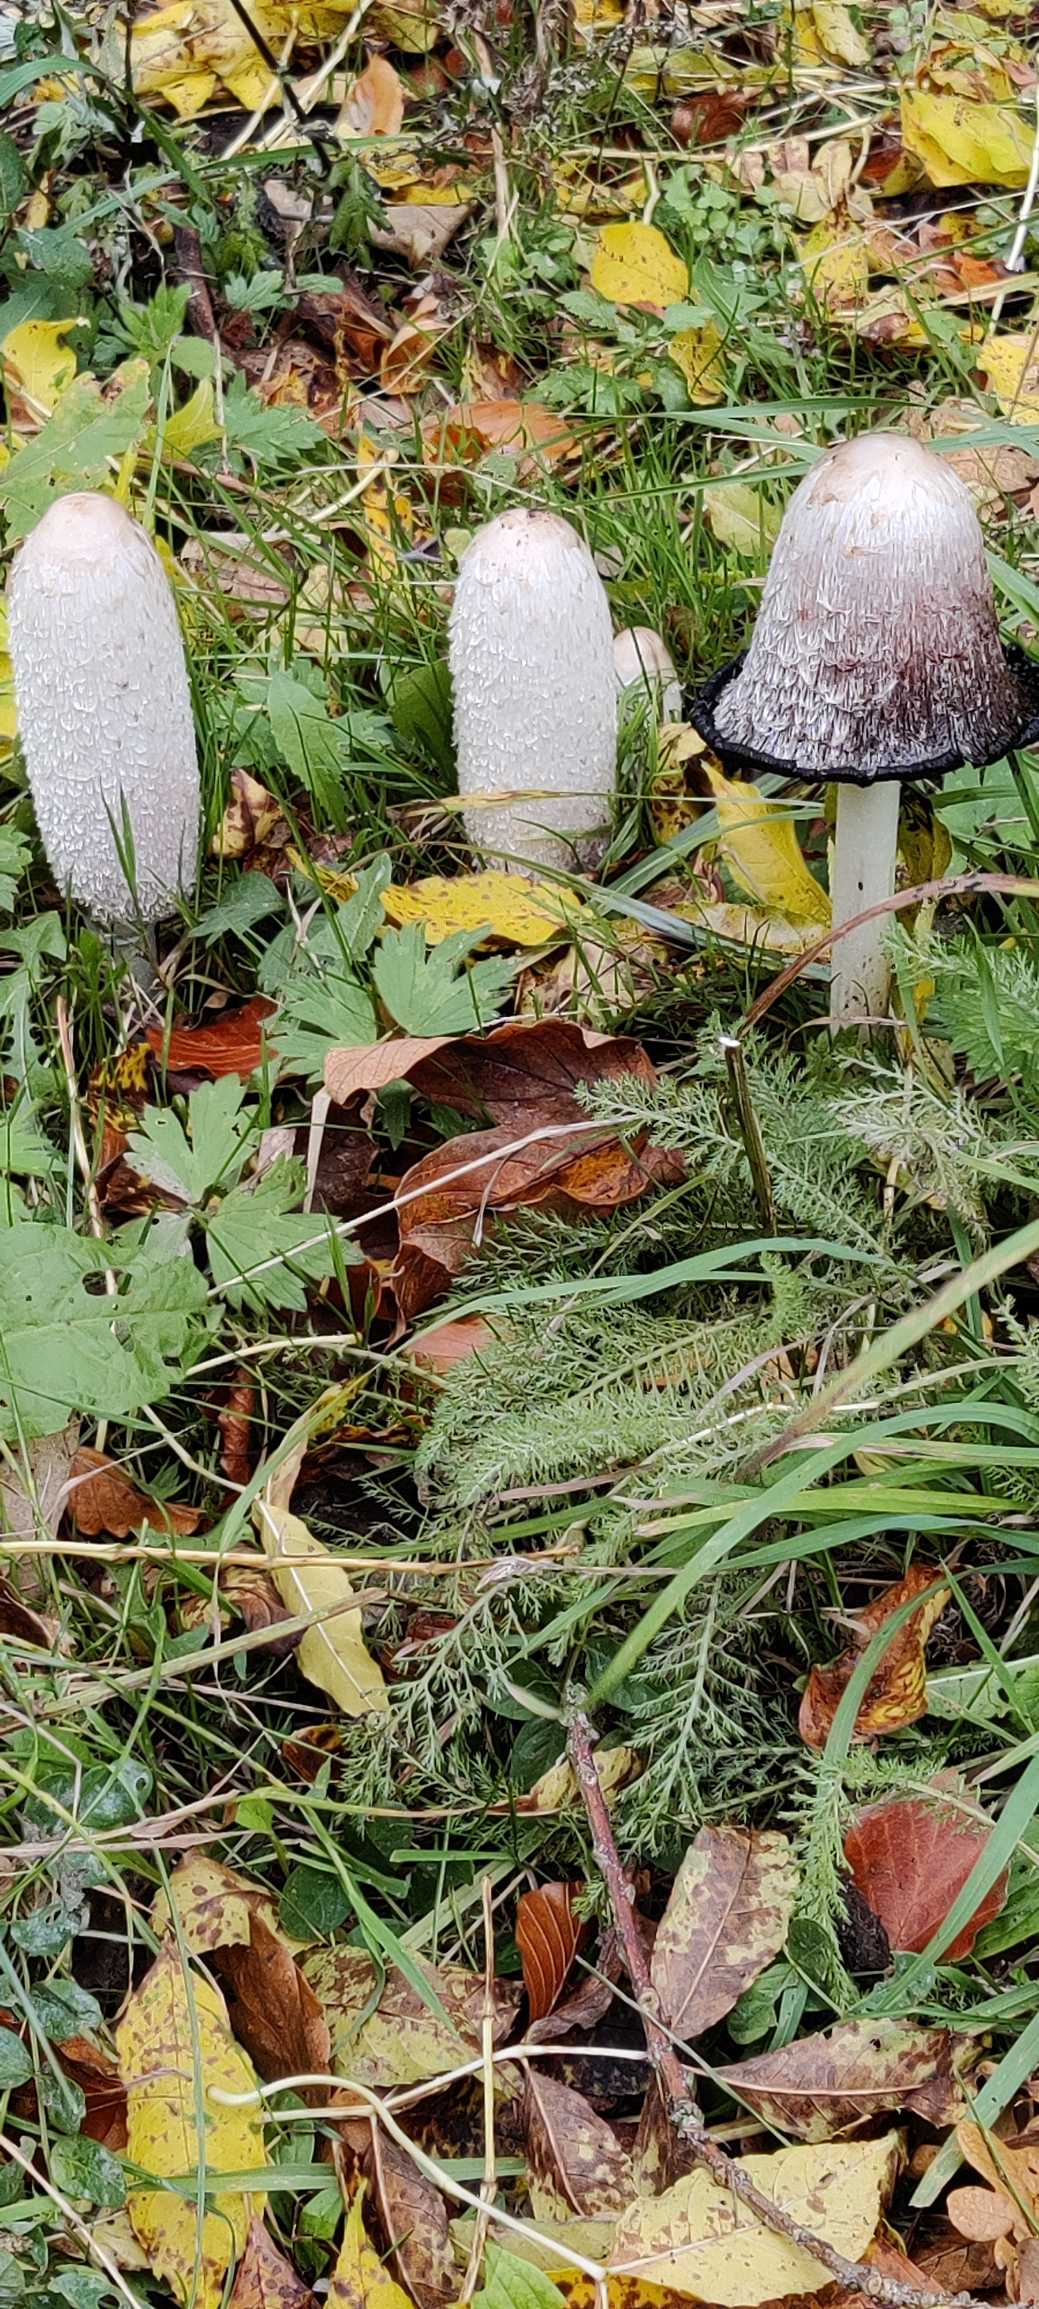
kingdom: Fungi
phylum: Basidiomycota
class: Agaricomycetes
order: Agaricales
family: Agaricaceae
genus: Coprinus
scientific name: Coprinus comatus
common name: Stor parykhat
